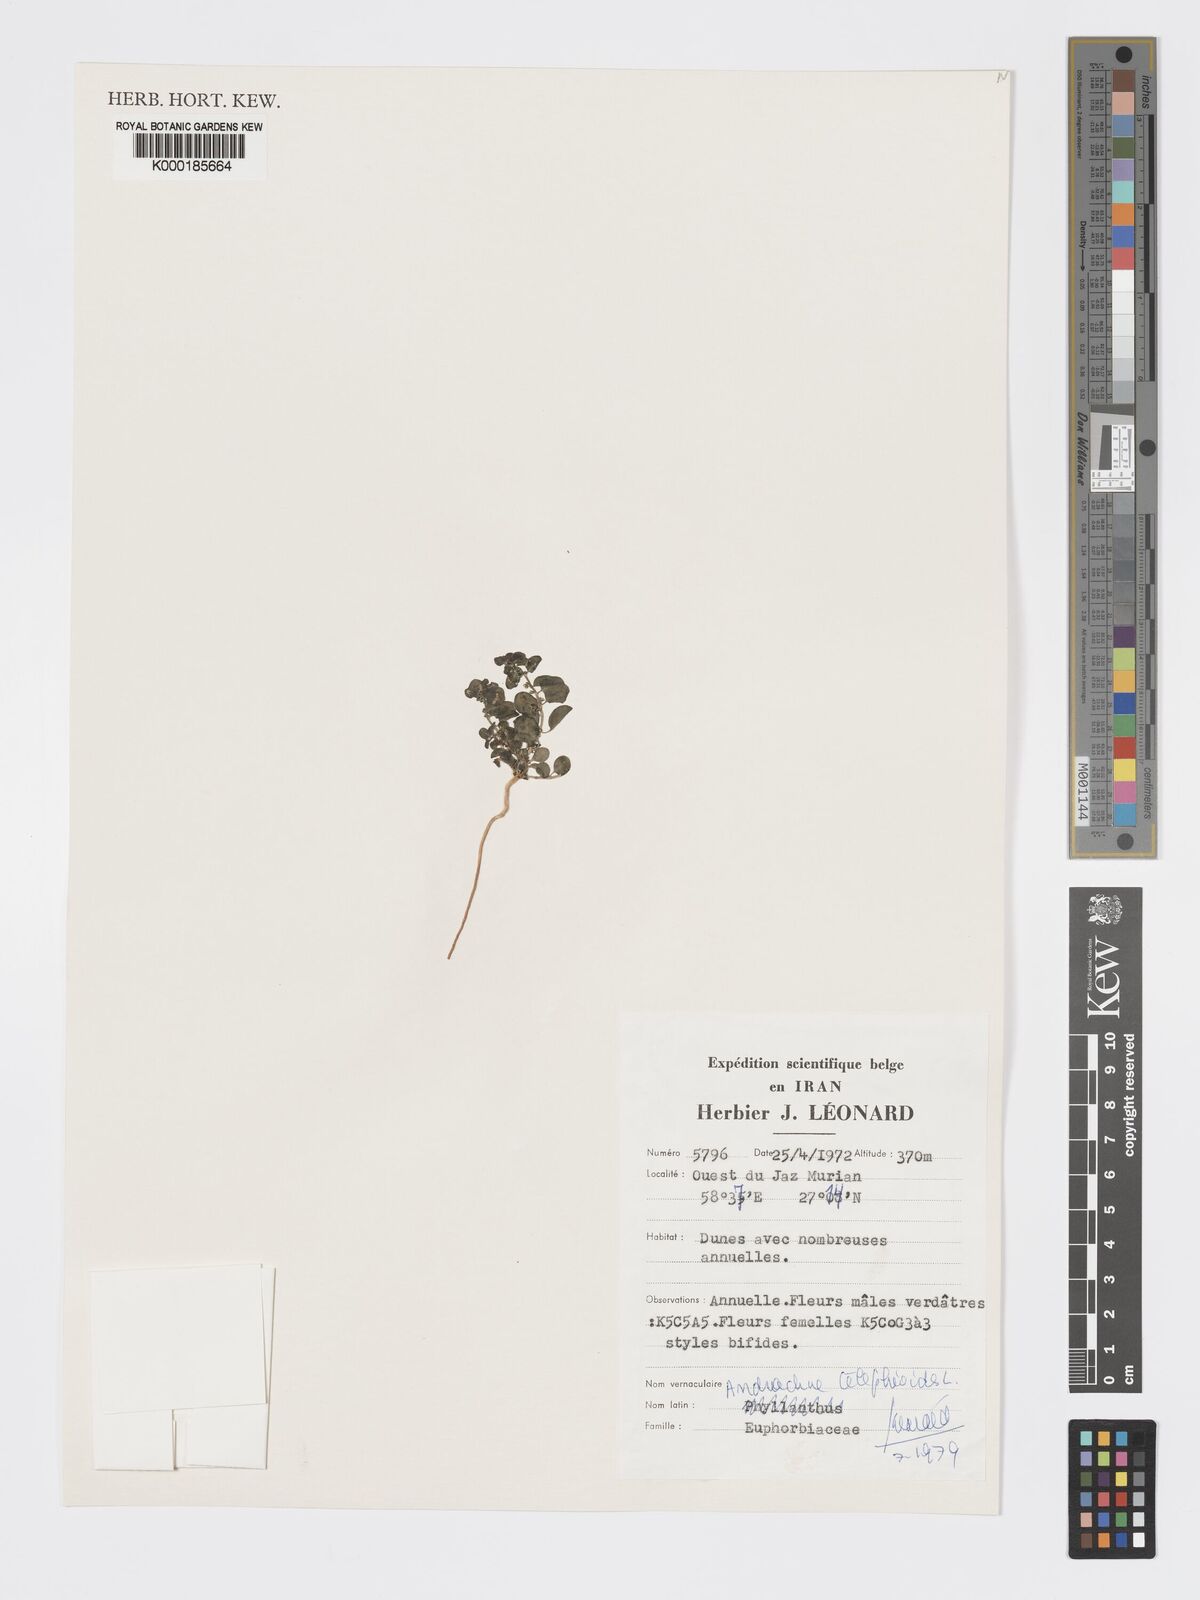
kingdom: Plantae
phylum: Tracheophyta
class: Magnoliopsida
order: Malpighiales
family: Phyllanthaceae
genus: Andrachne
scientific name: Andrachne telephioides
